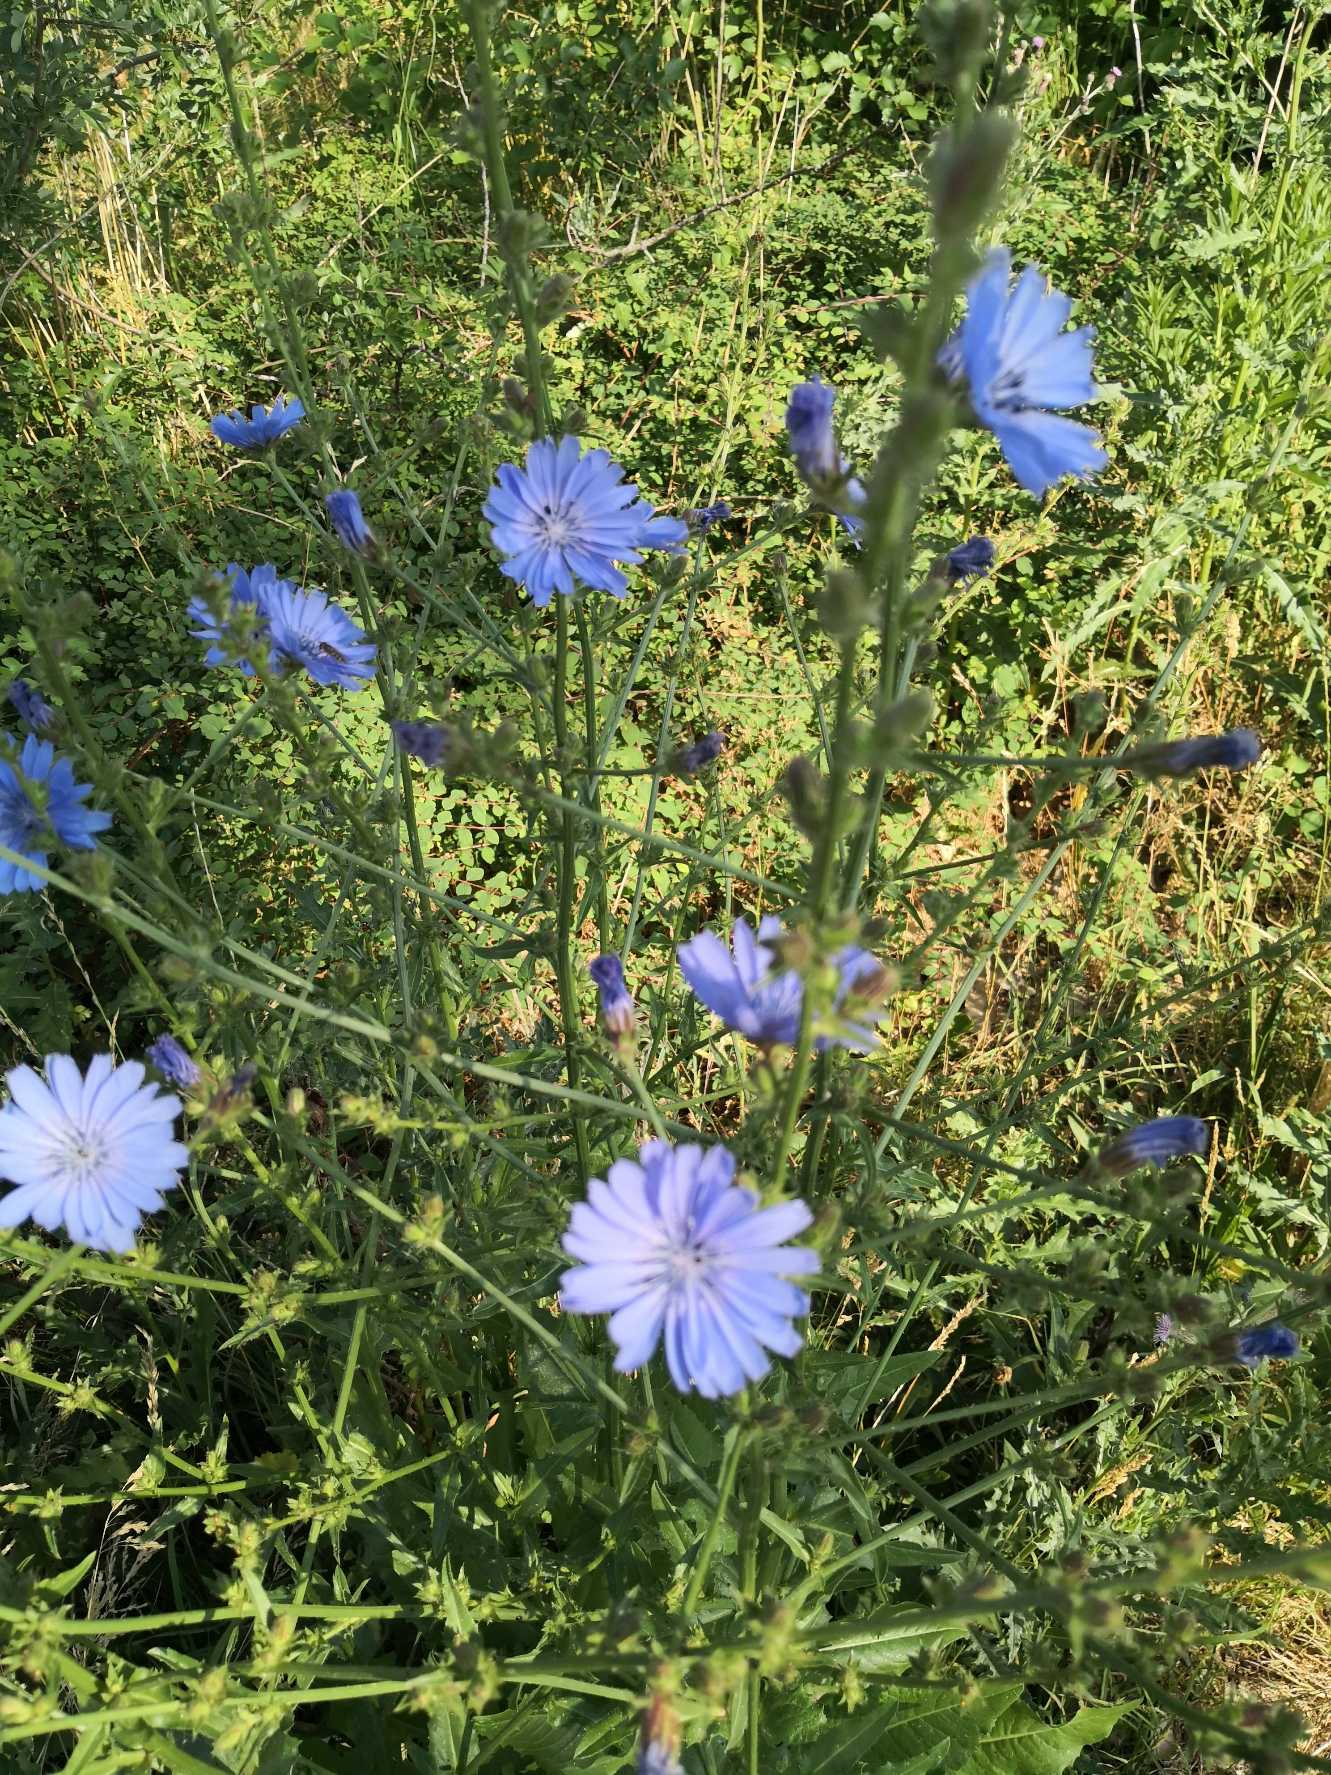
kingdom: Plantae
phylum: Tracheophyta
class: Magnoliopsida
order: Asterales
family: Asteraceae
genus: Cichorium
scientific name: Cichorium intybus
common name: Cikorie
